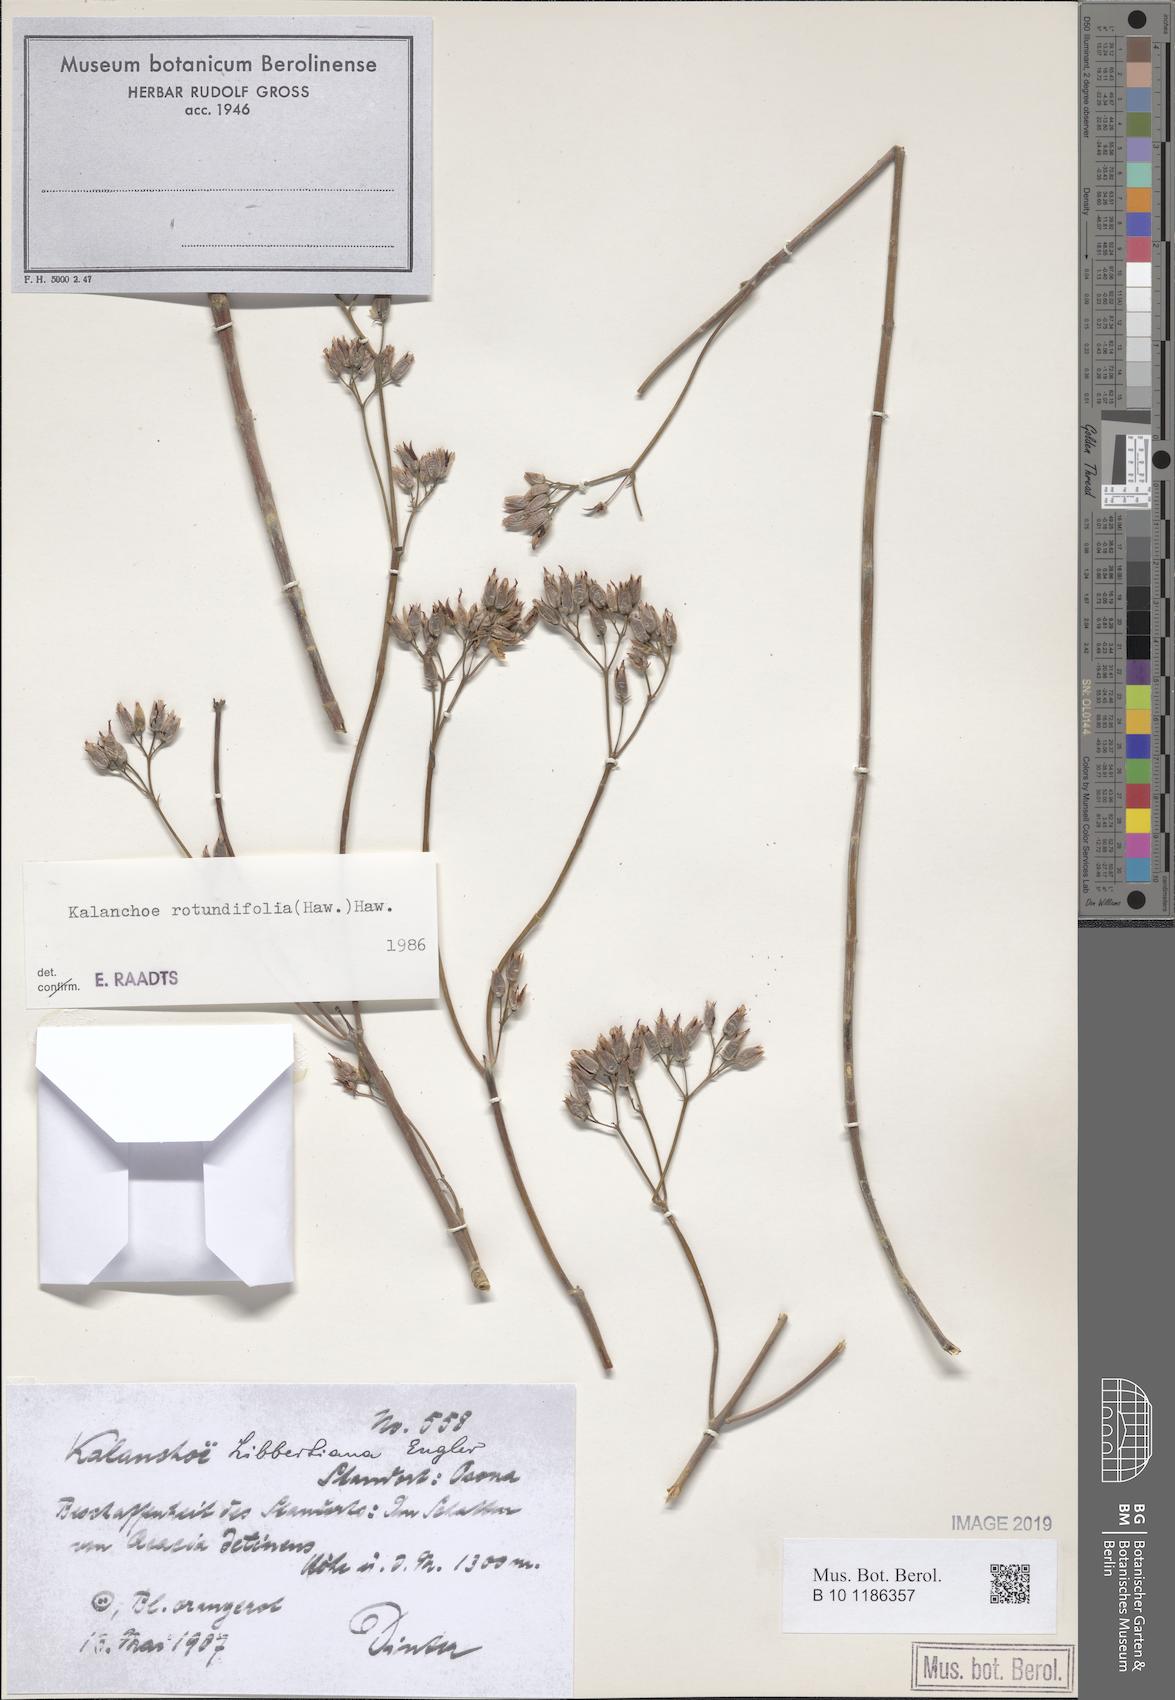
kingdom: Plantae
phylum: Tracheophyta
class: Magnoliopsida
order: Saxifragales
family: Crassulaceae
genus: Kalanchoe
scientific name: Kalanchoe rotundifolia
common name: Common kalanchoe
